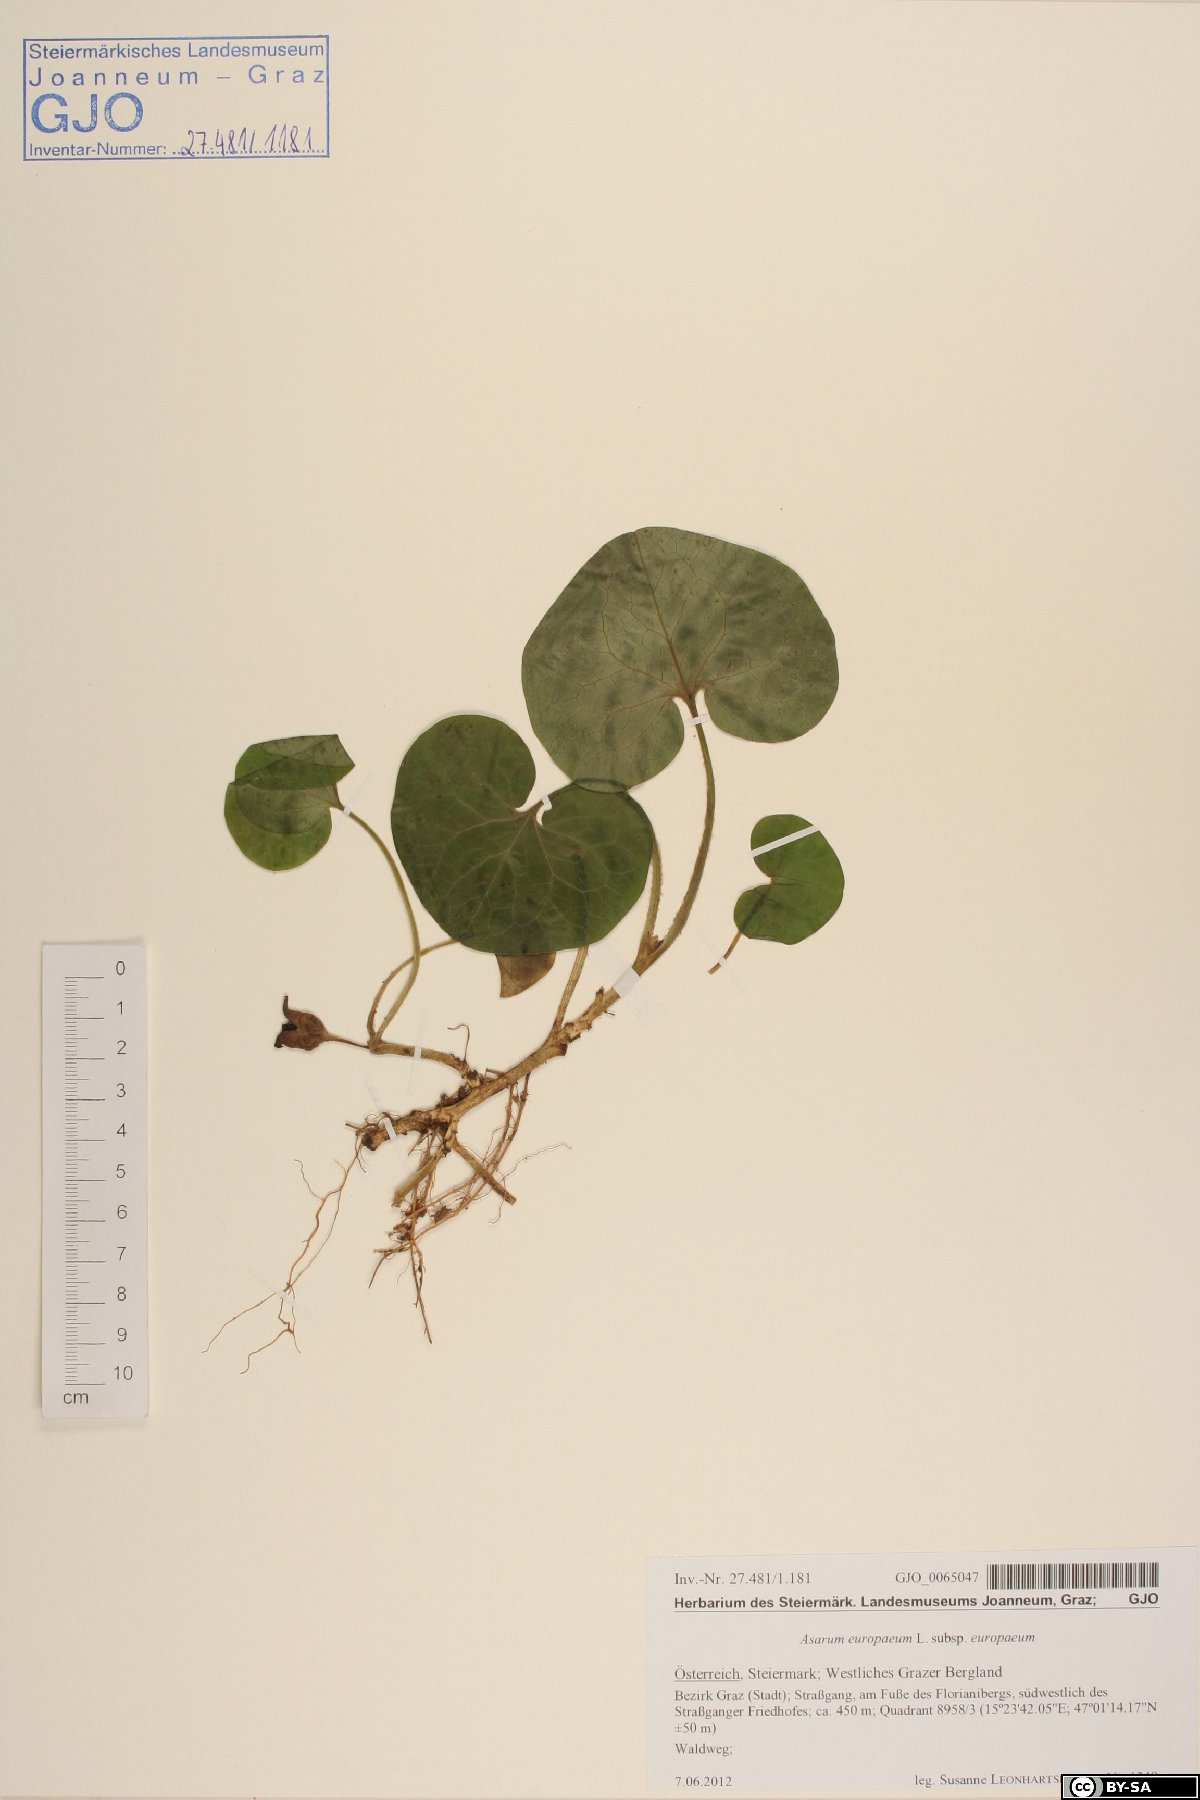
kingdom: Plantae
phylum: Tracheophyta
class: Magnoliopsida
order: Piperales
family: Aristolochiaceae
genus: Asarum
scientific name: Asarum europaeum
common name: Asarabacca
